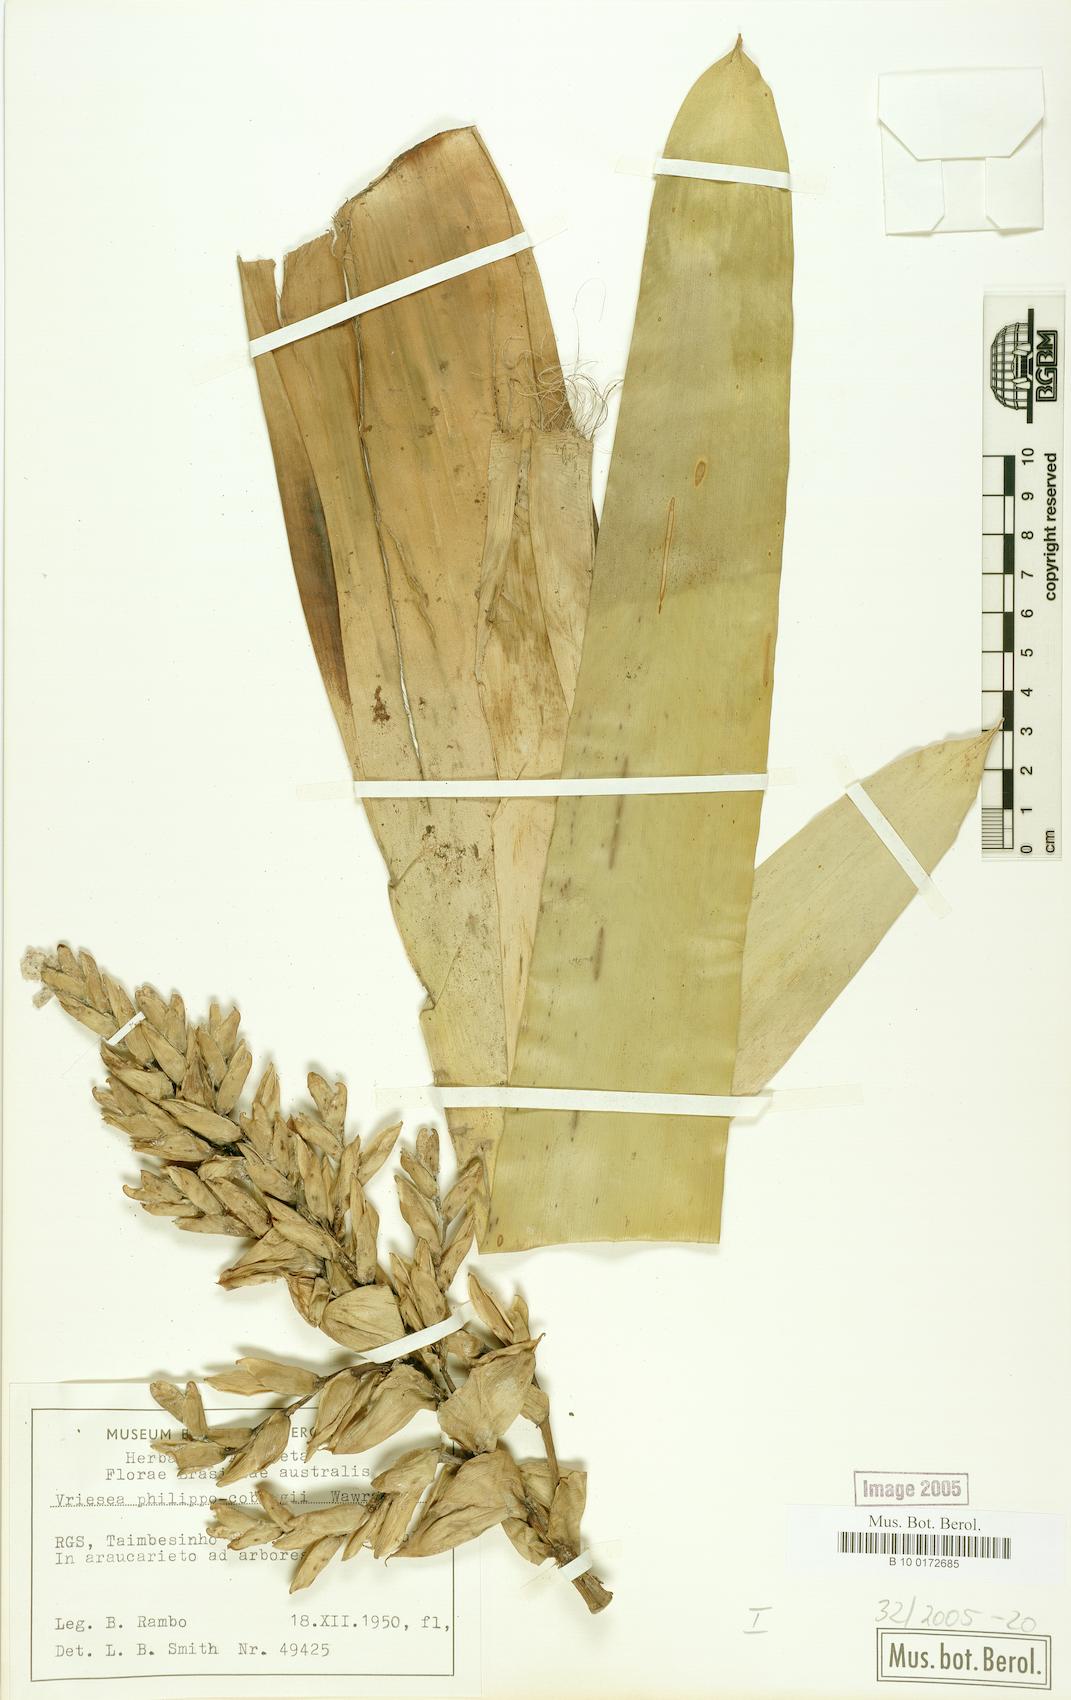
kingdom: Plantae
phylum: Tracheophyta
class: Liliopsida
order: Poales
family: Bromeliaceae
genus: Vriesea
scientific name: Vriesea philippocoburgi
